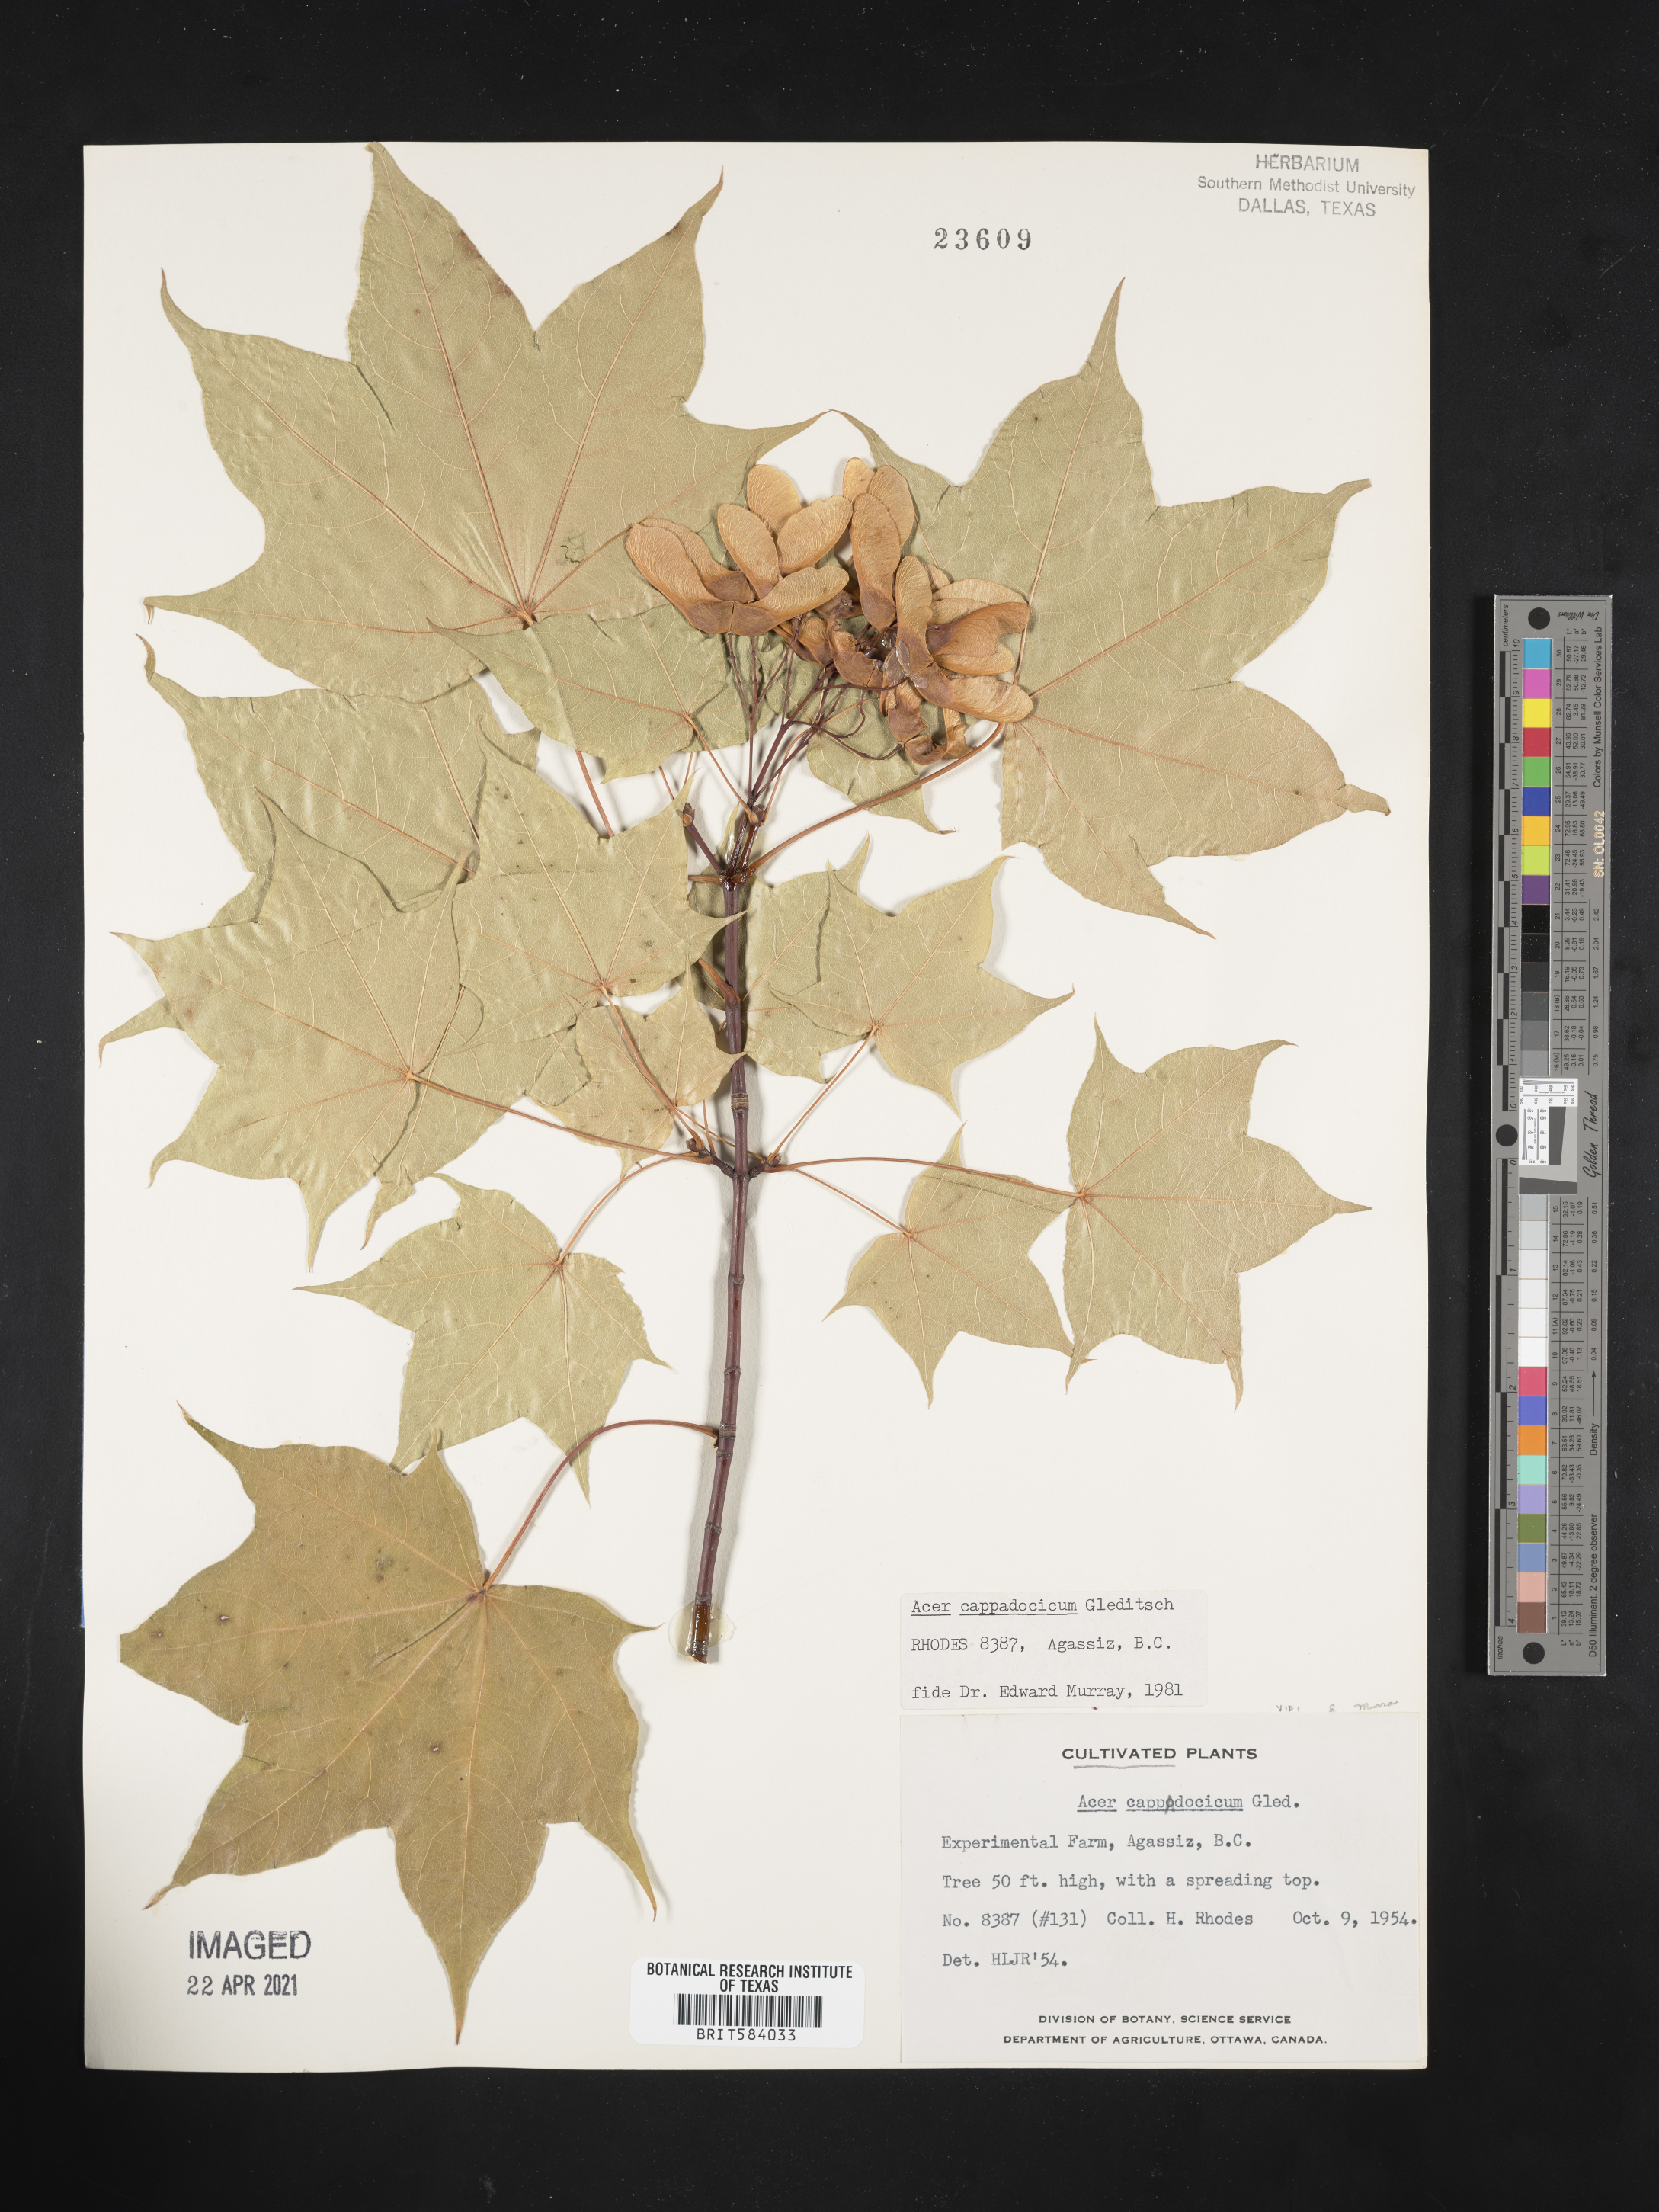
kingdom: Plantae
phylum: Tracheophyta
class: Magnoliopsida
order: Sapindales
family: Sapindaceae
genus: Acer
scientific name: Acer cappadocicum
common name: Cappadocian maple
